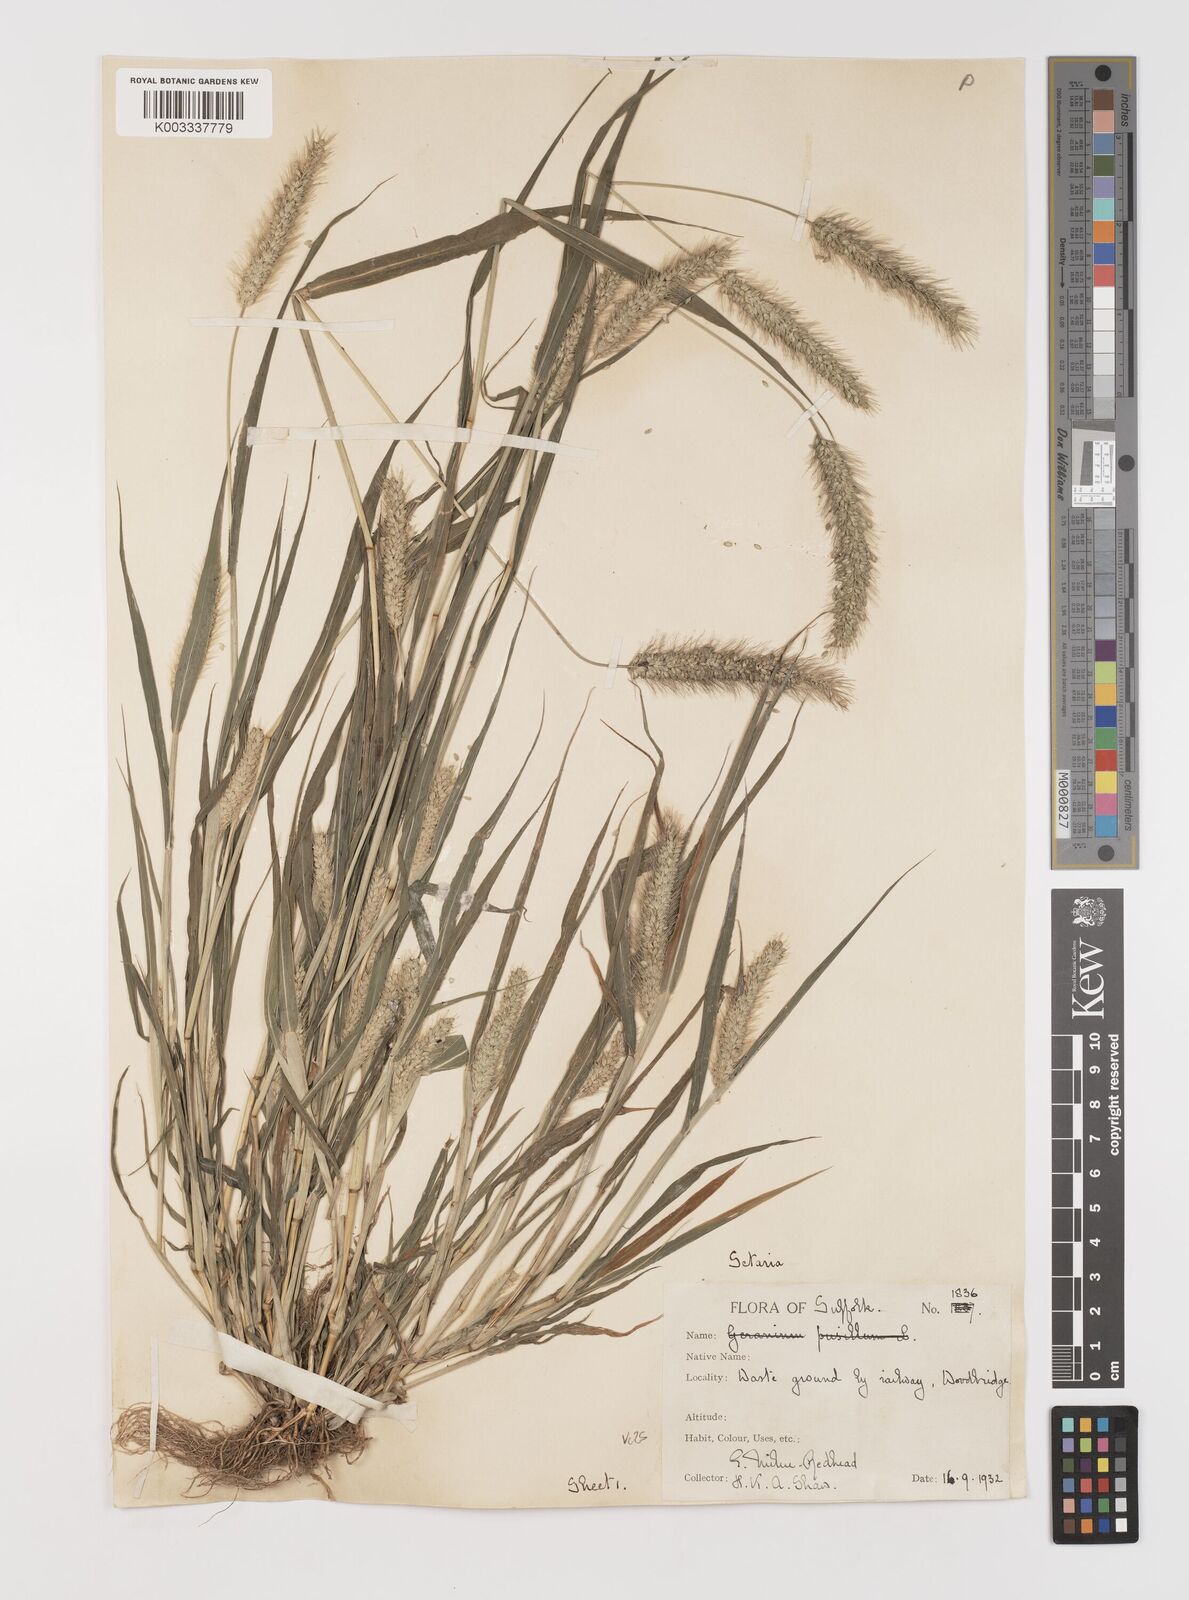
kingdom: Plantae
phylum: Tracheophyta
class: Liliopsida
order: Poales
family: Poaceae
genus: Setaria
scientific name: Setaria viridis
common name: Green bristlegrass
